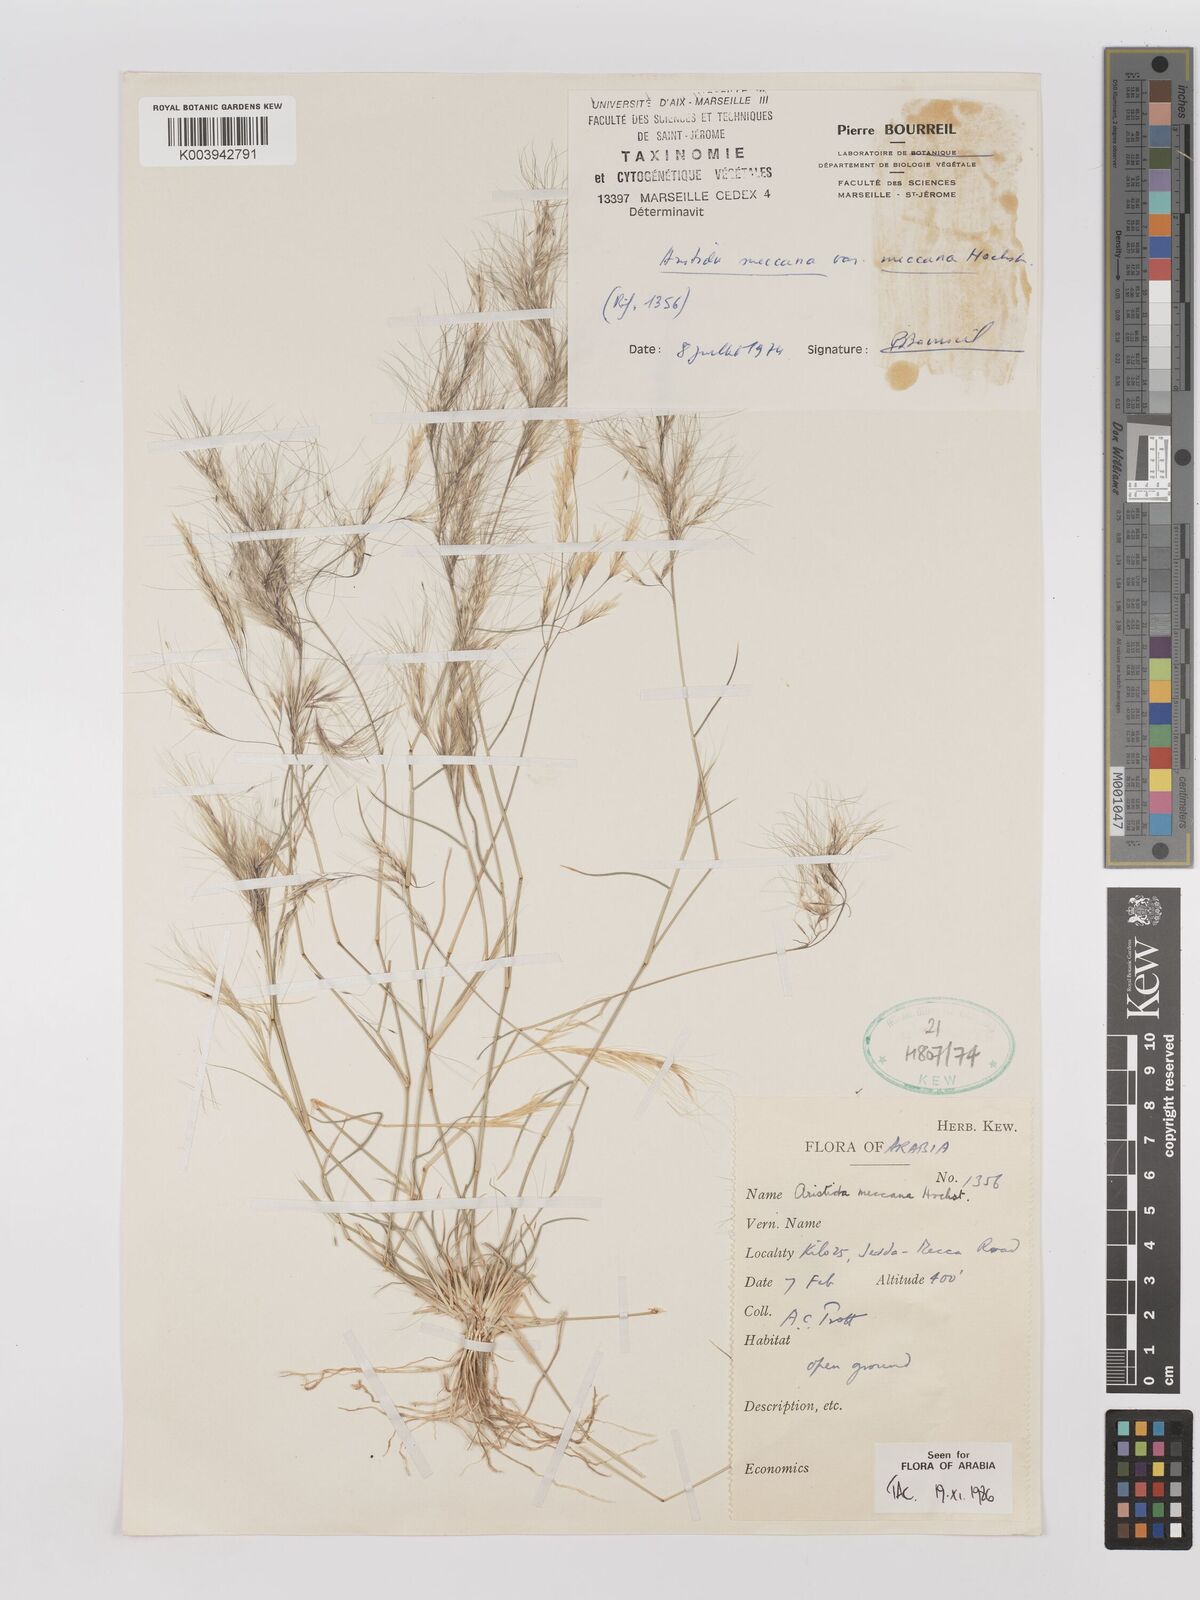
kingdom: Plantae
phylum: Tracheophyta
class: Liliopsida
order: Poales
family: Poaceae
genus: Aristida
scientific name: Aristida mutabilis
